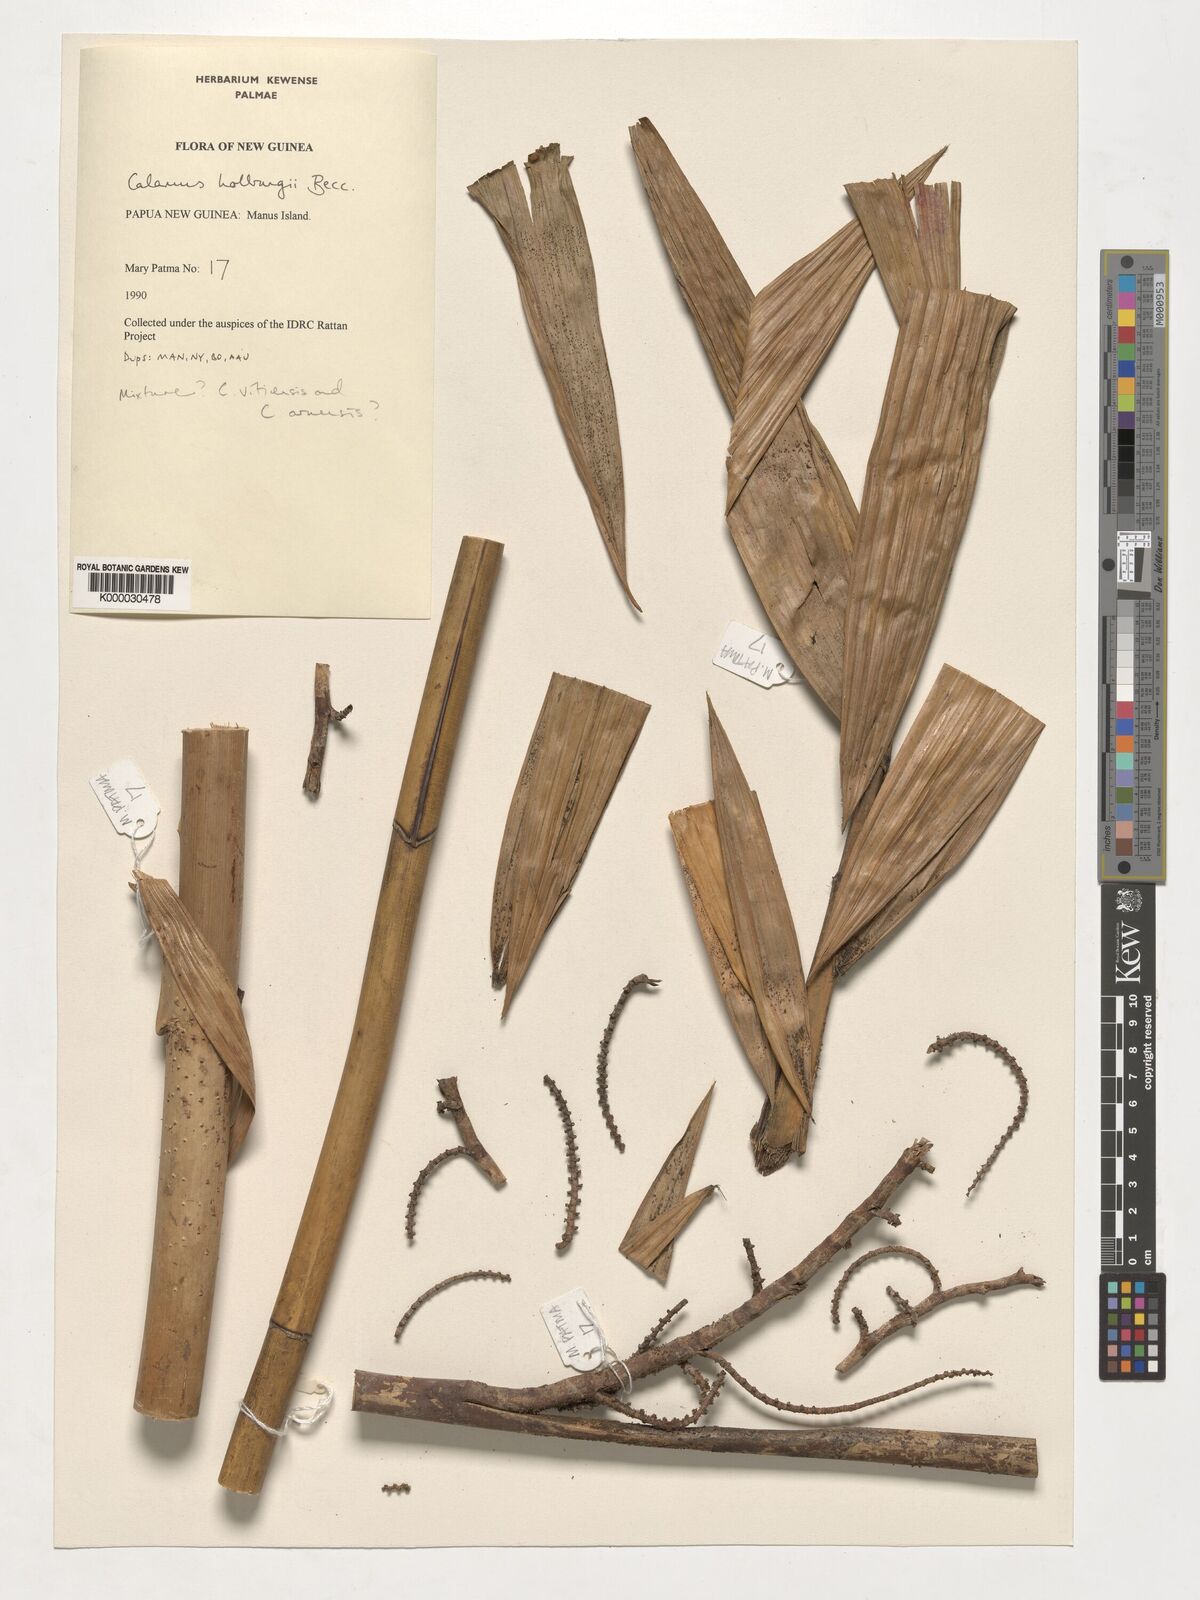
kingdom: Plantae
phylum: Tracheophyta
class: Liliopsida
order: Arecales
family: Arecaceae
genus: Calamus
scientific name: Calamus
